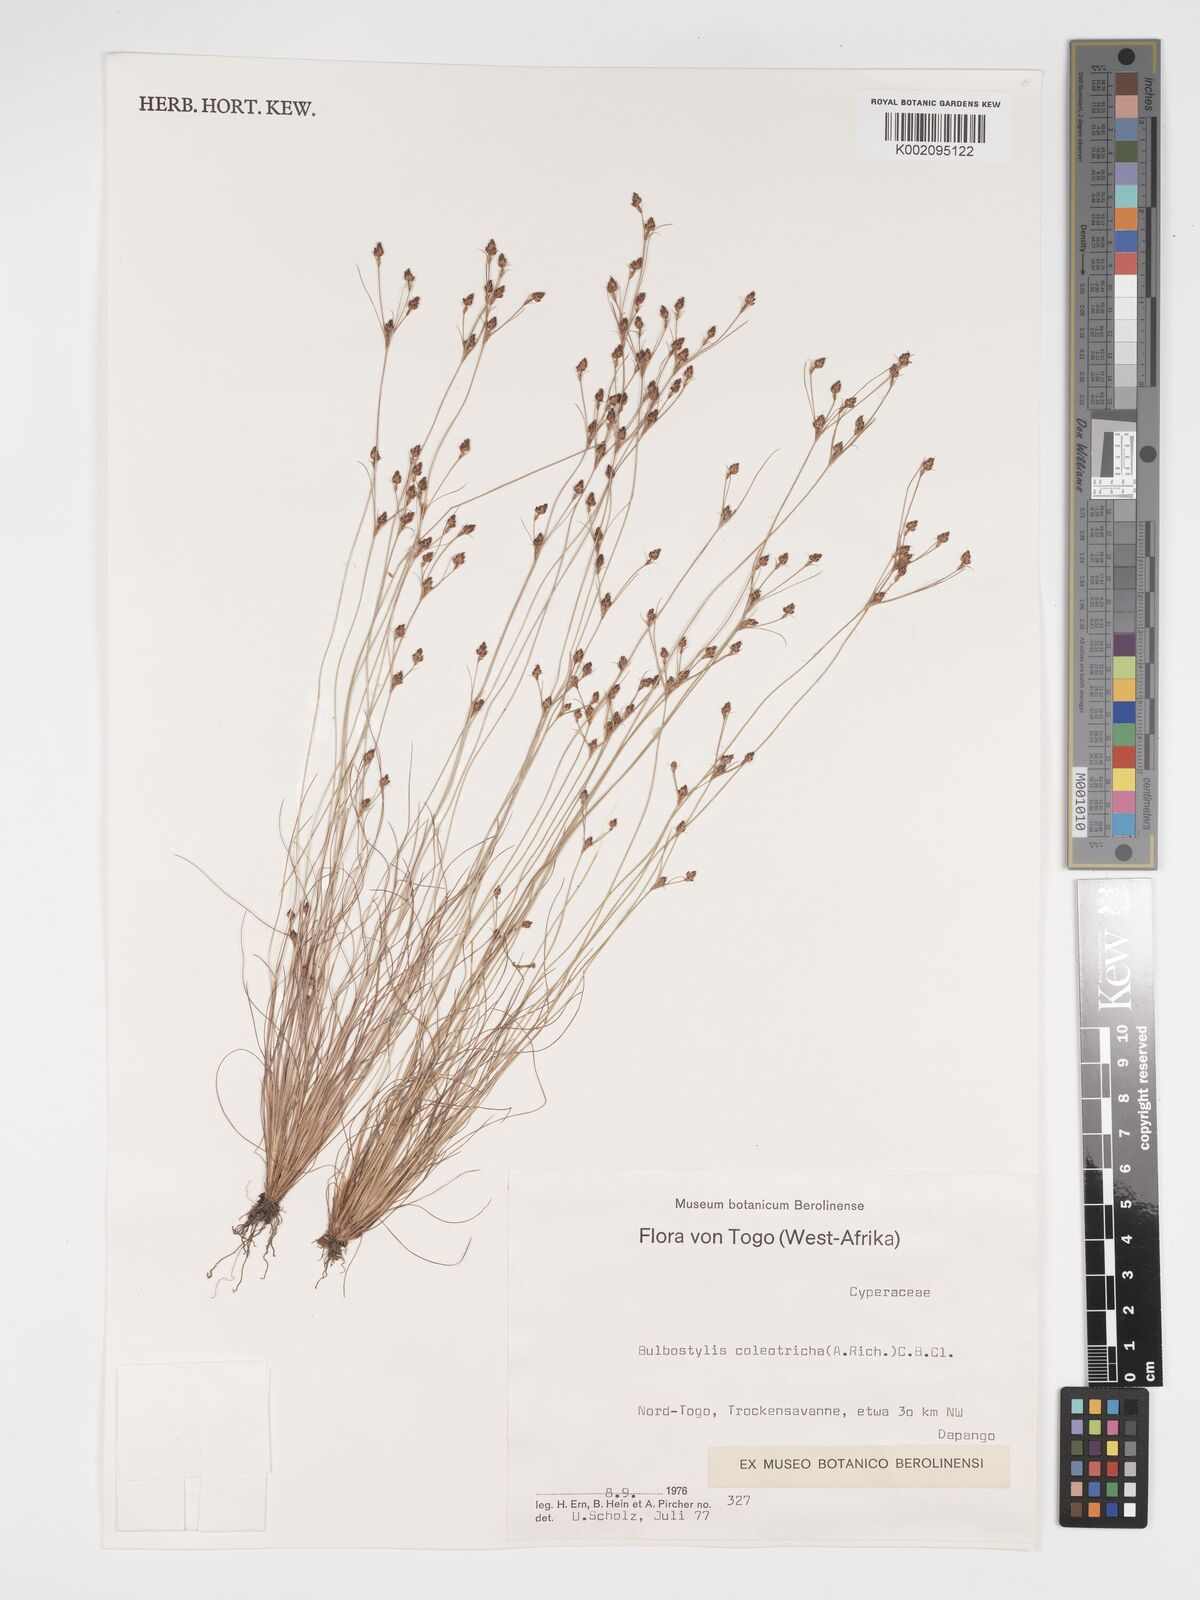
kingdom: Plantae
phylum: Tracheophyta
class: Liliopsida
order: Poales
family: Cyperaceae
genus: Bulbostylis
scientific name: Bulbostylis coleotricha
